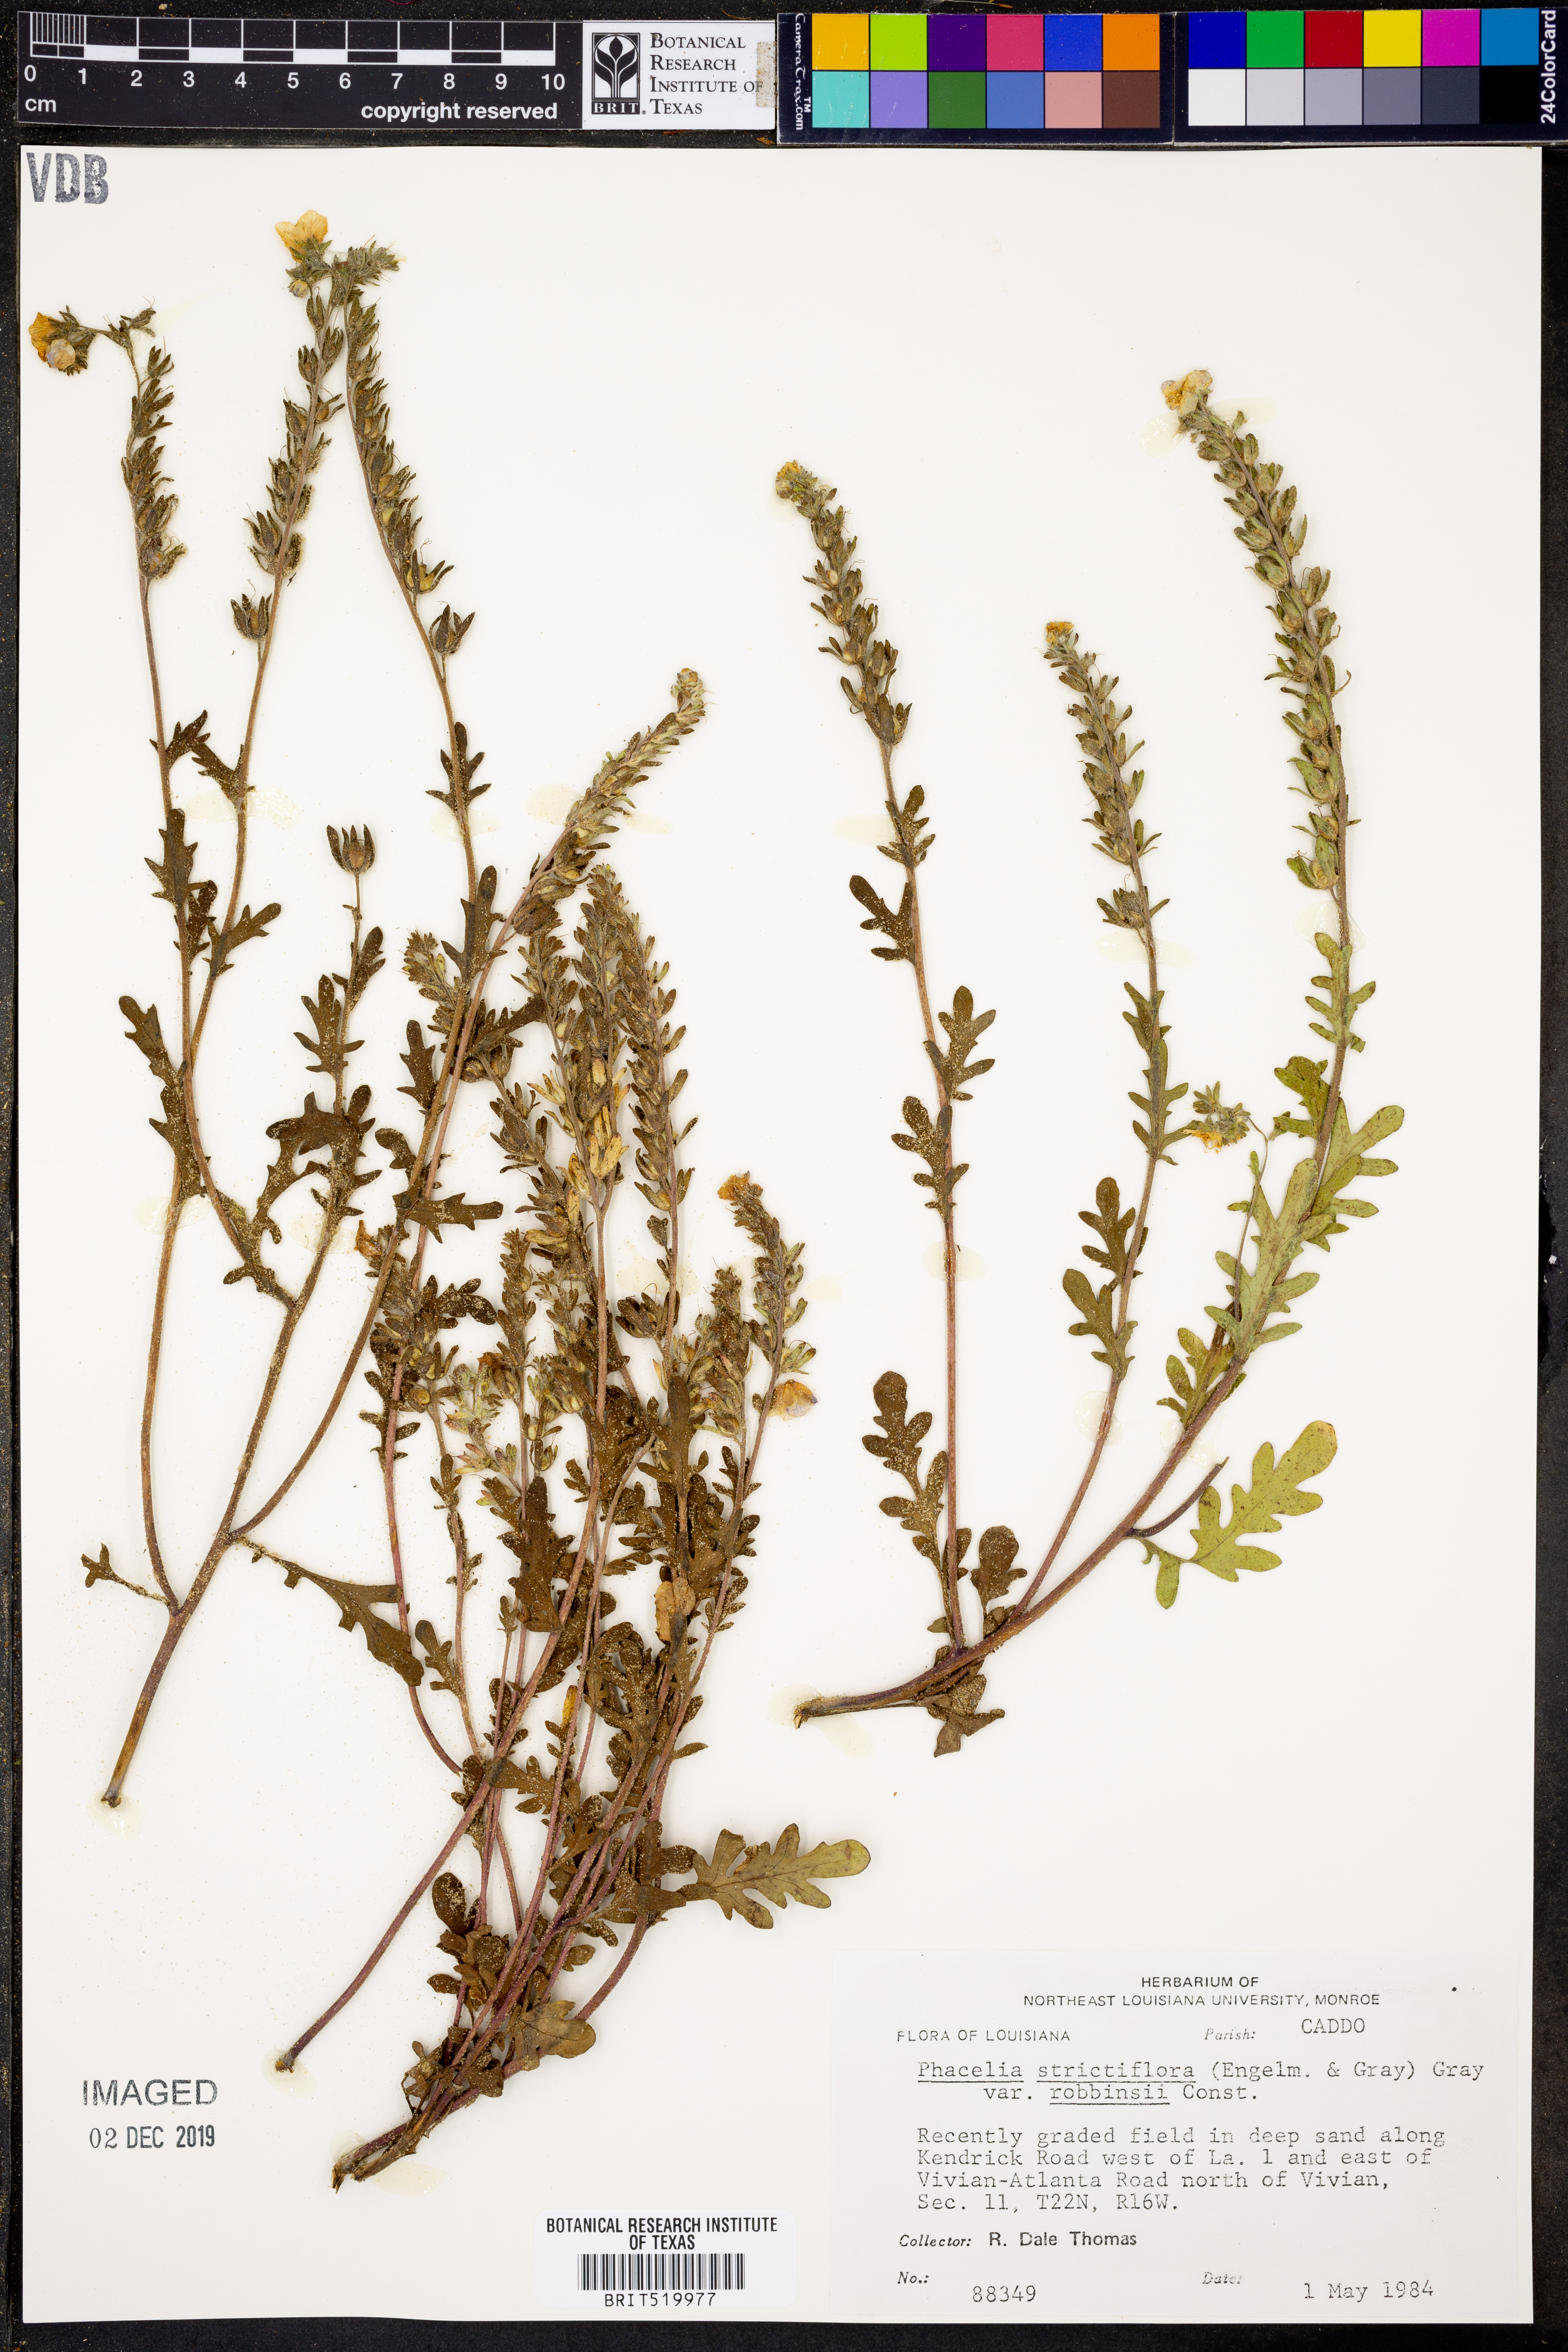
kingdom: Plantae
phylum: Tracheophyta
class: Magnoliopsida
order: Boraginales
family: Hydrophyllaceae
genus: Phacelia
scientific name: Phacelia strictiflora
